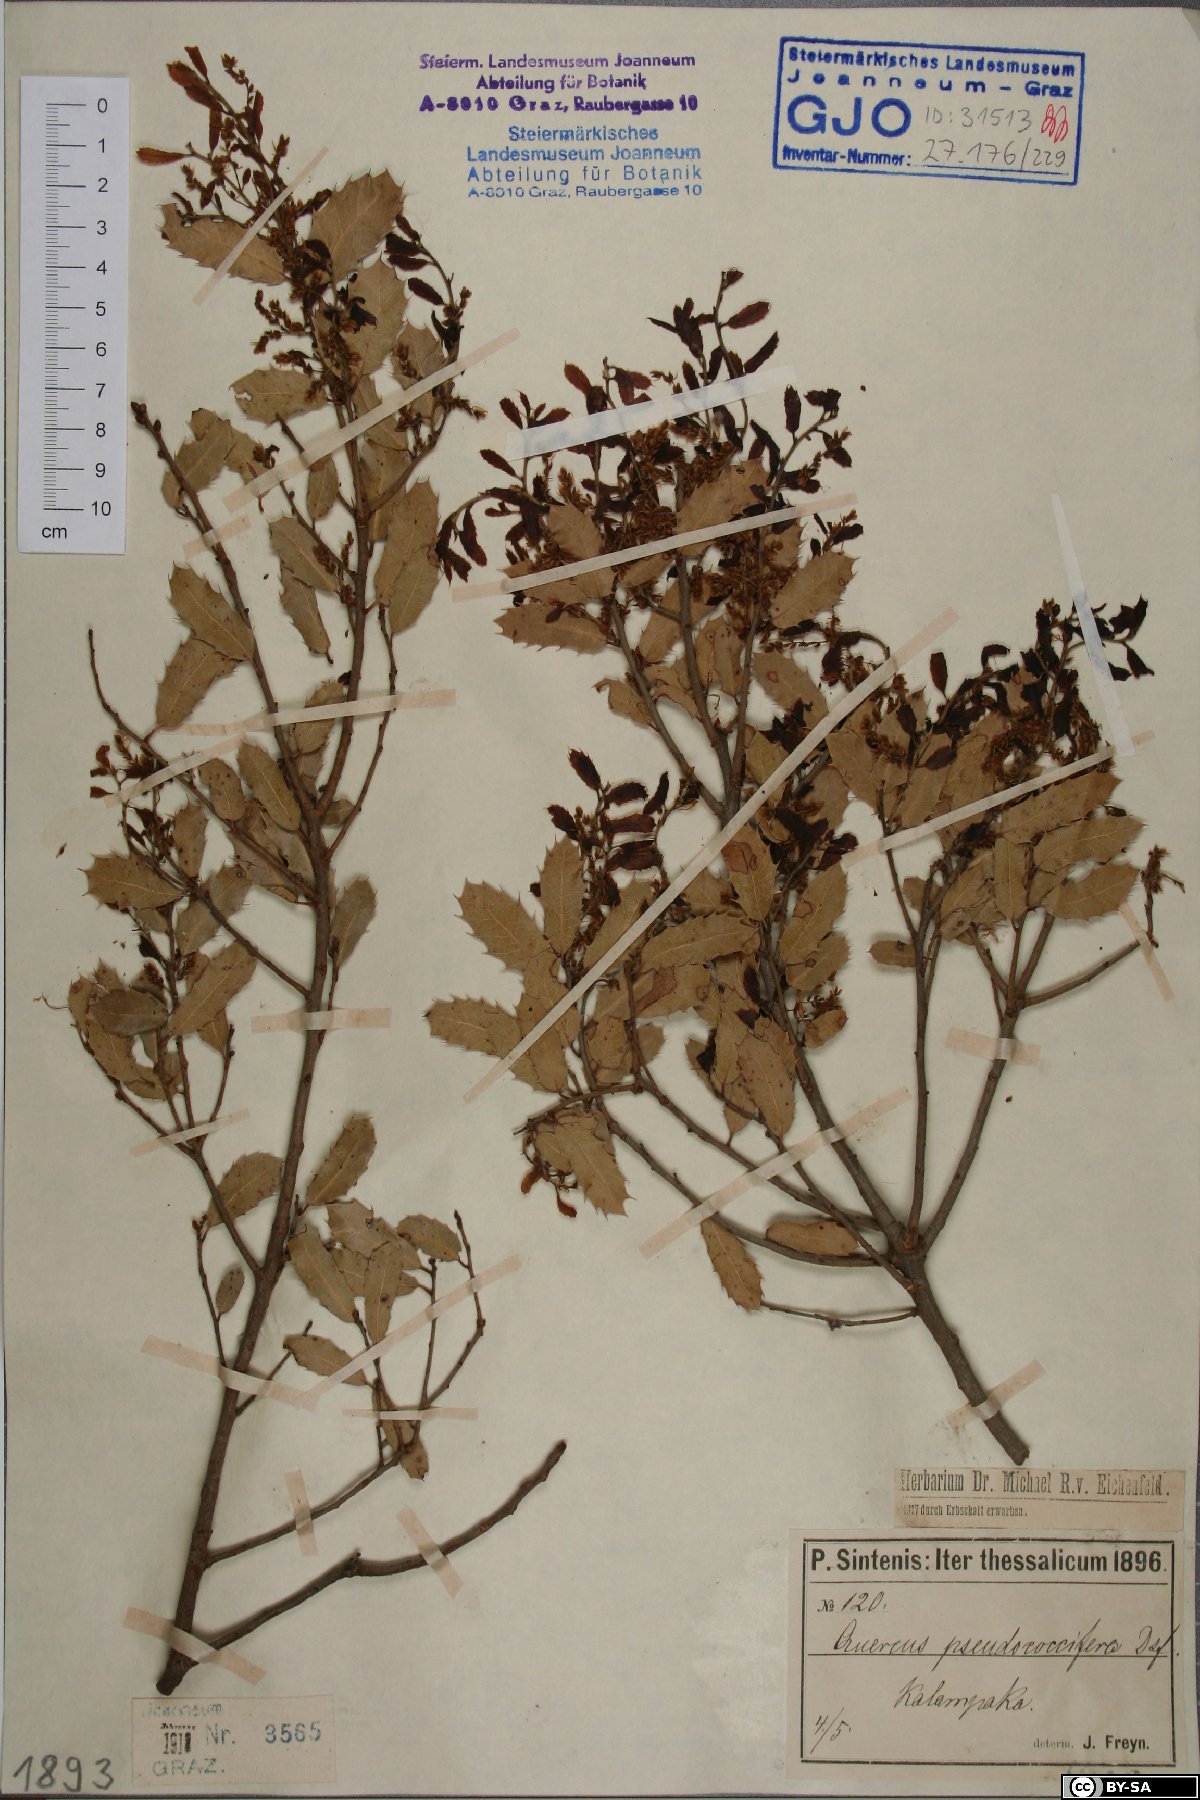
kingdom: Plantae
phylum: Tracheophyta
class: Magnoliopsida
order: Fagales
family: Fagaceae
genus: Quercus
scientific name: Quercus pseudococcifera
